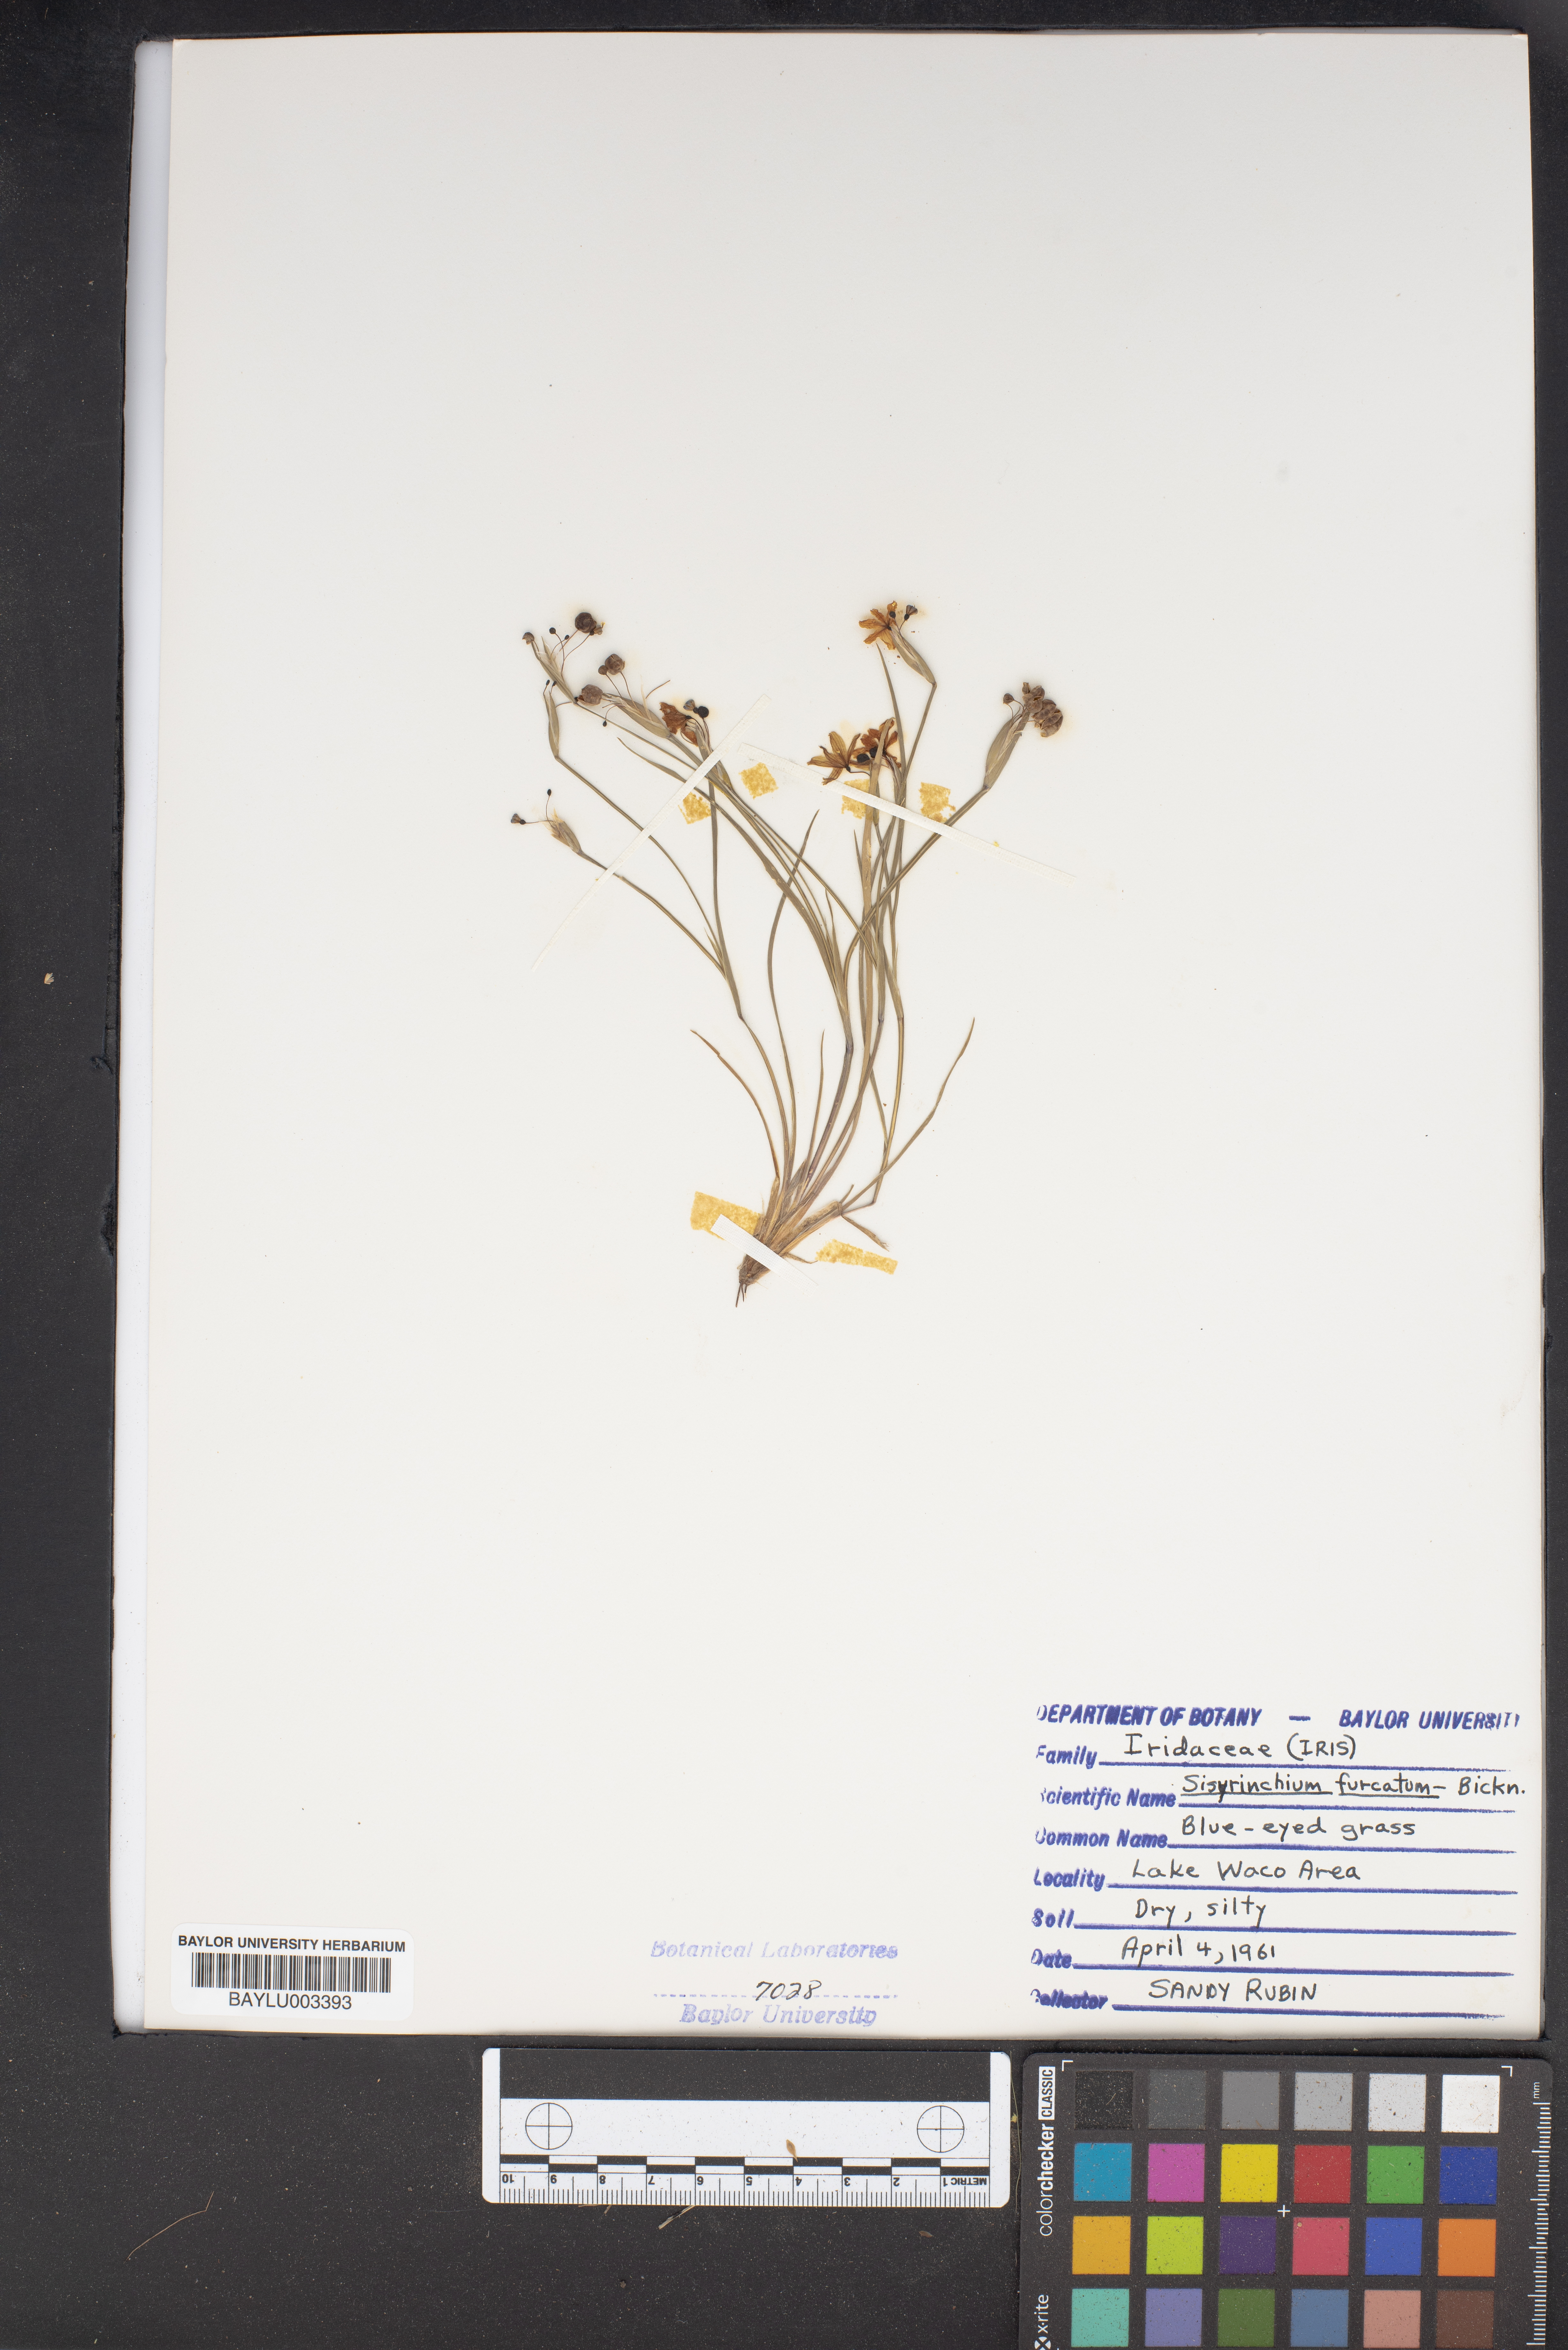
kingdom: Plantae
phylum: Tracheophyta
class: Liliopsida
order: Asparagales
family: Iridaceae
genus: Sisyrinchium
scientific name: Sisyrinchium fuscatum
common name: Coastal plain blue-eyed-grass
